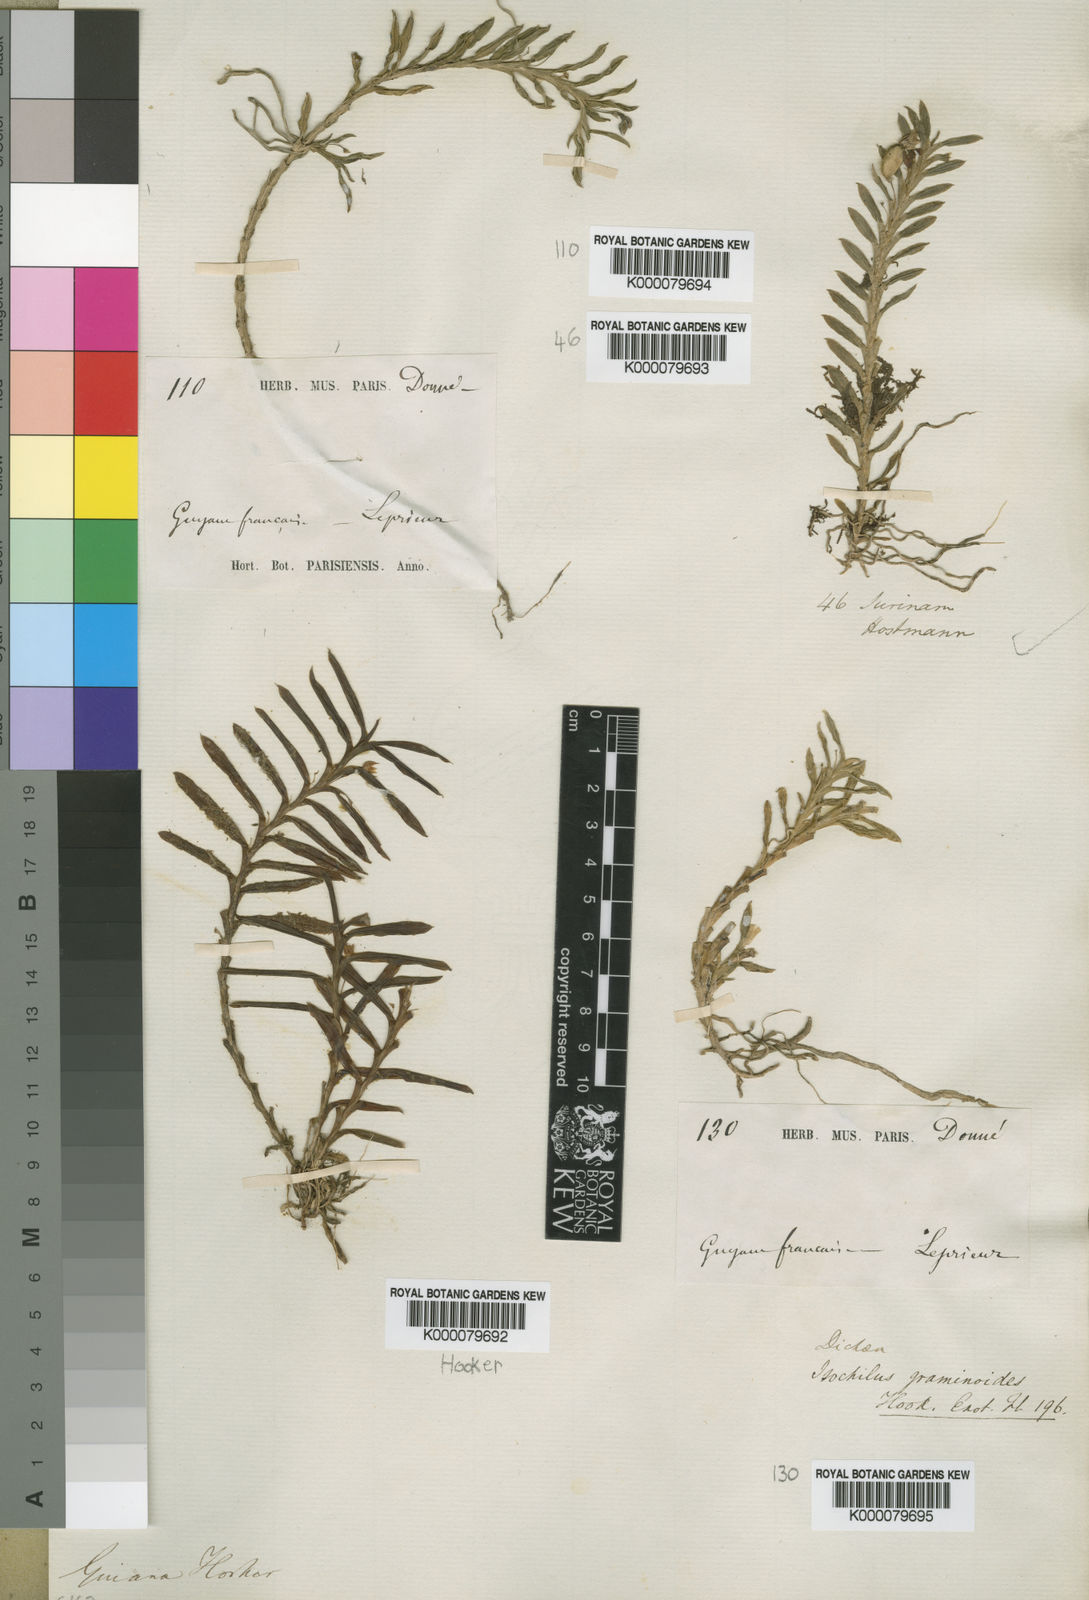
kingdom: Plantae
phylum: Tracheophyta
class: Liliopsida
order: Asparagales
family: Orchidaceae
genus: Dichaea
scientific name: Dichaea graminoides
